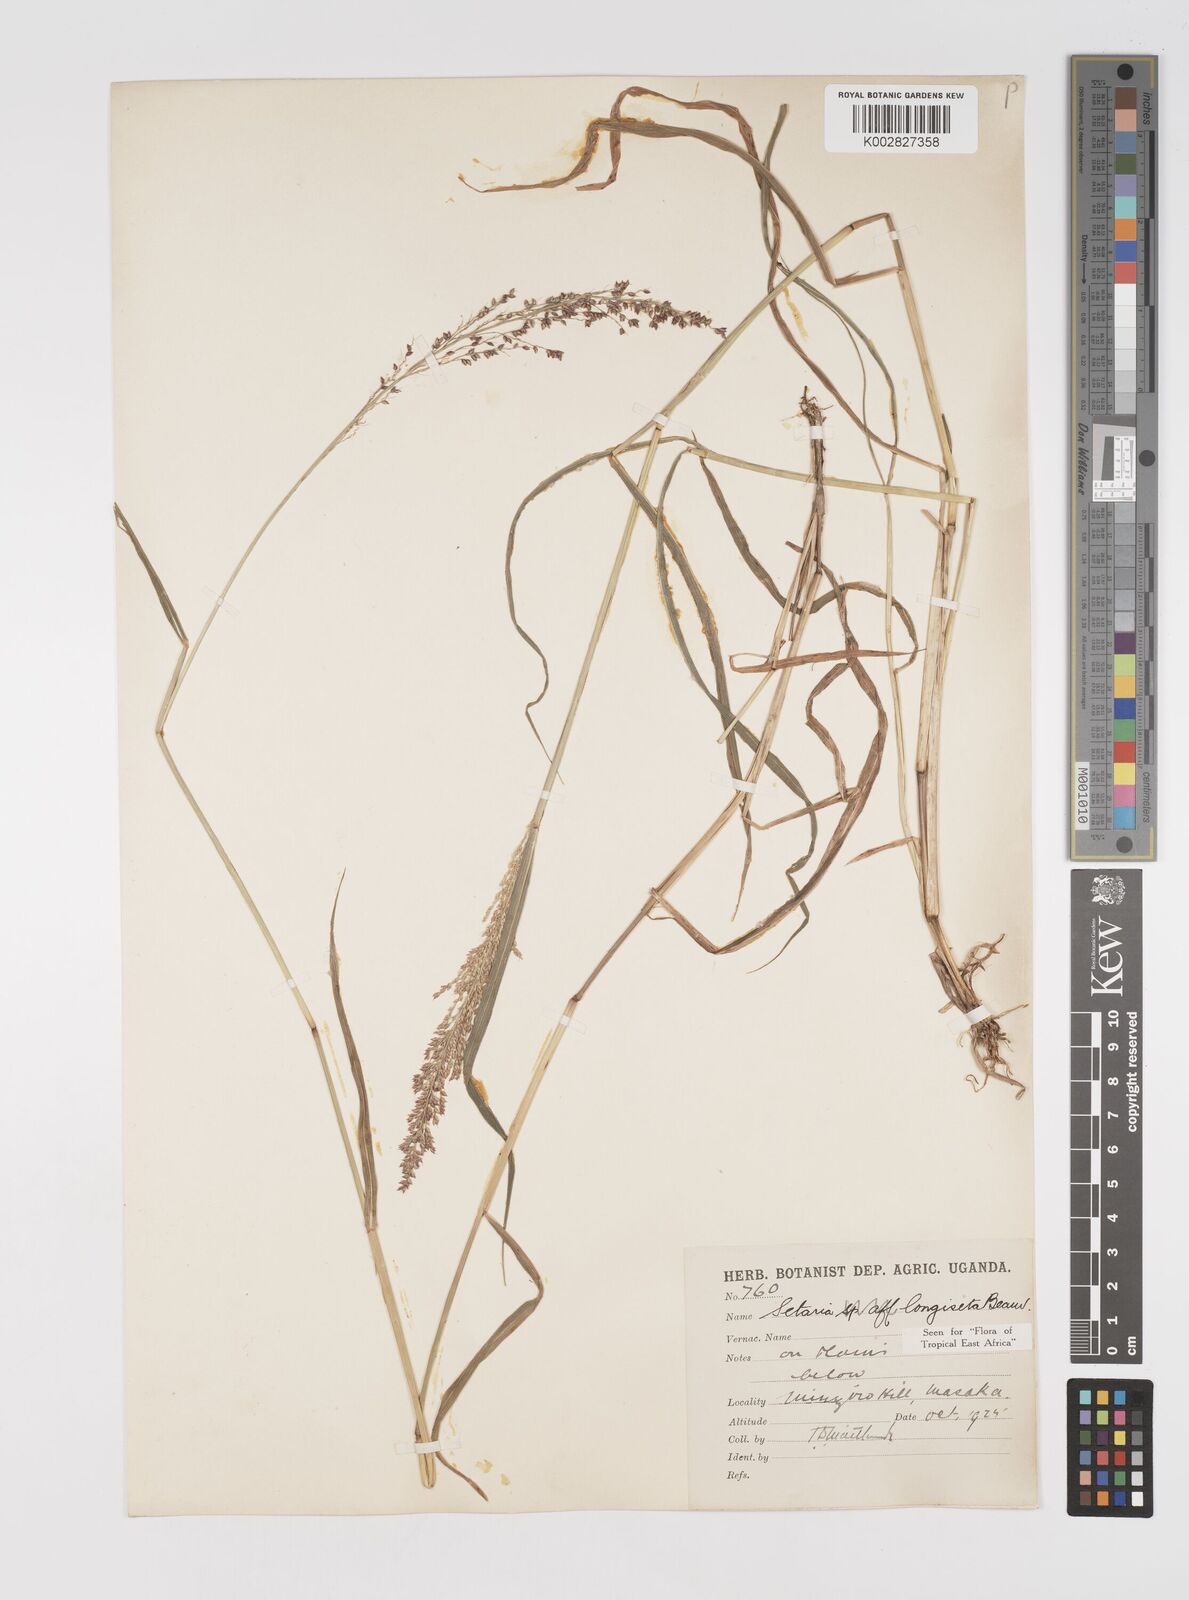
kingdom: Plantae
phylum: Tracheophyta
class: Liliopsida
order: Poales
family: Poaceae
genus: Setaria
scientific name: Setaria longiseta
